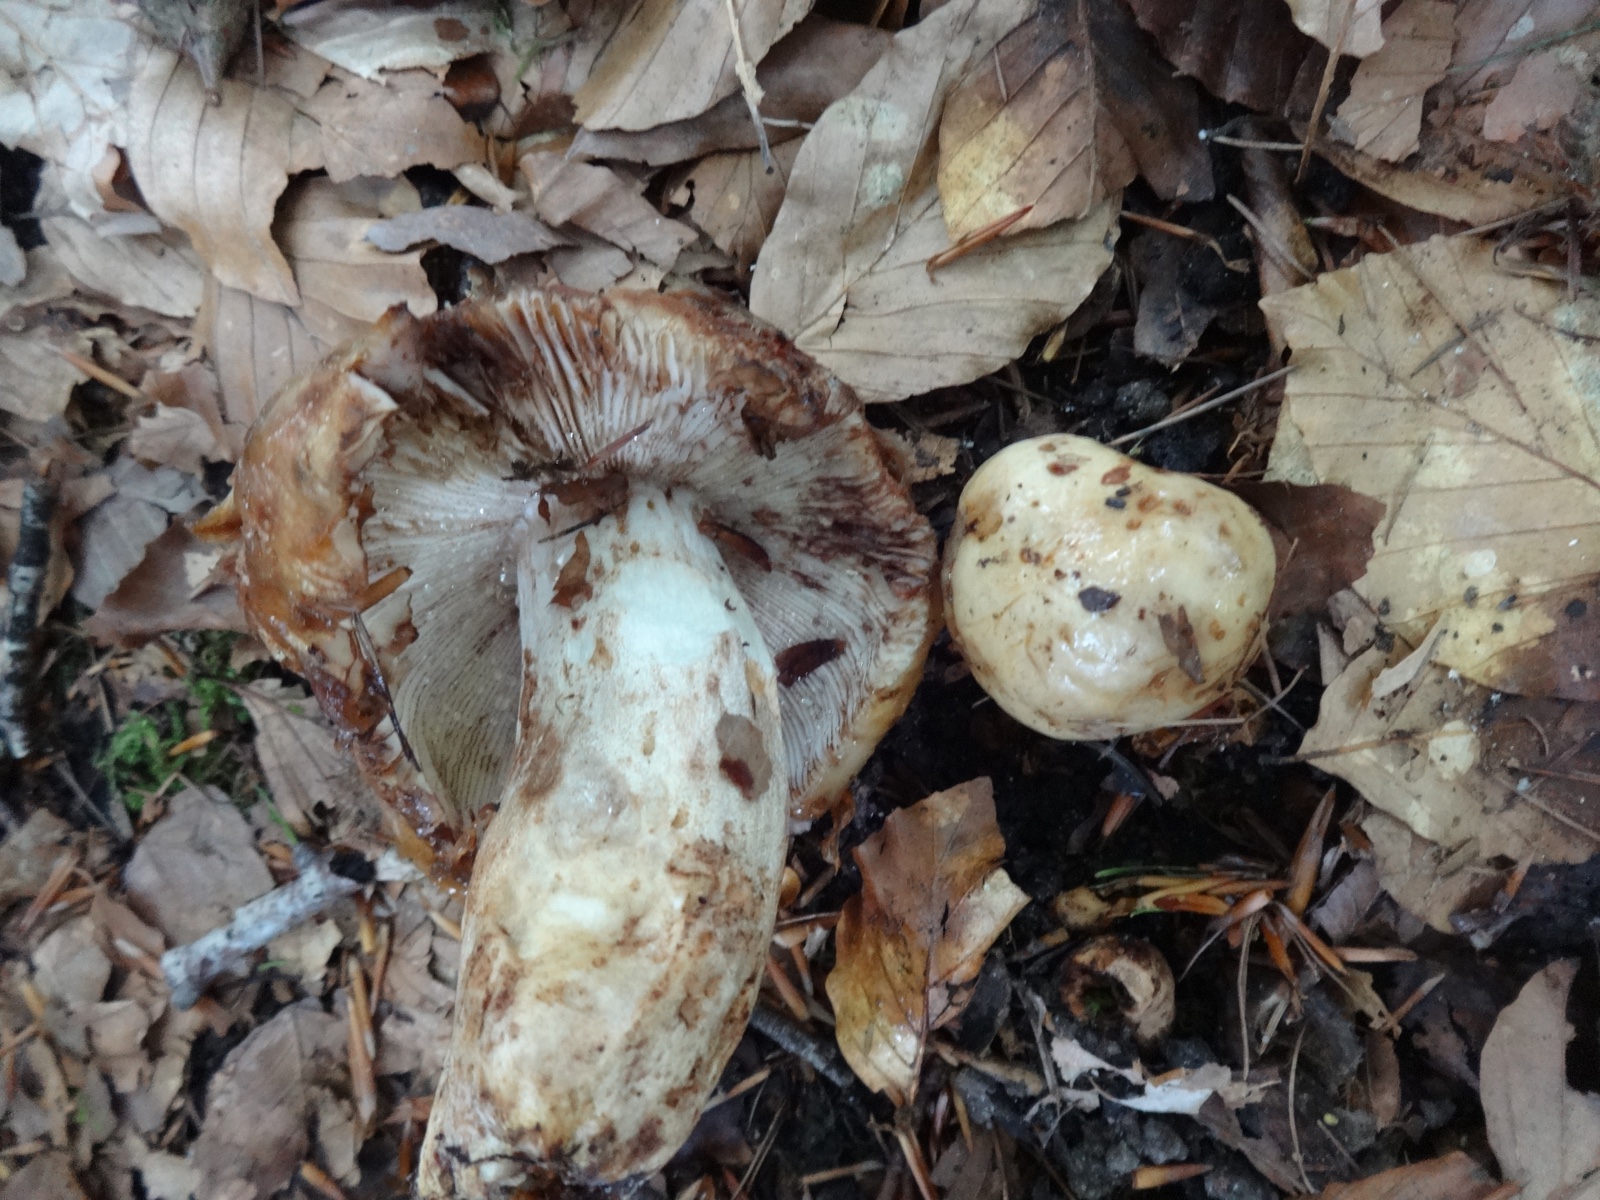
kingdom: Fungi
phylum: Basidiomycota
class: Agaricomycetes
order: Russulales
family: Russulaceae
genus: Russula
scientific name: Russula illota
